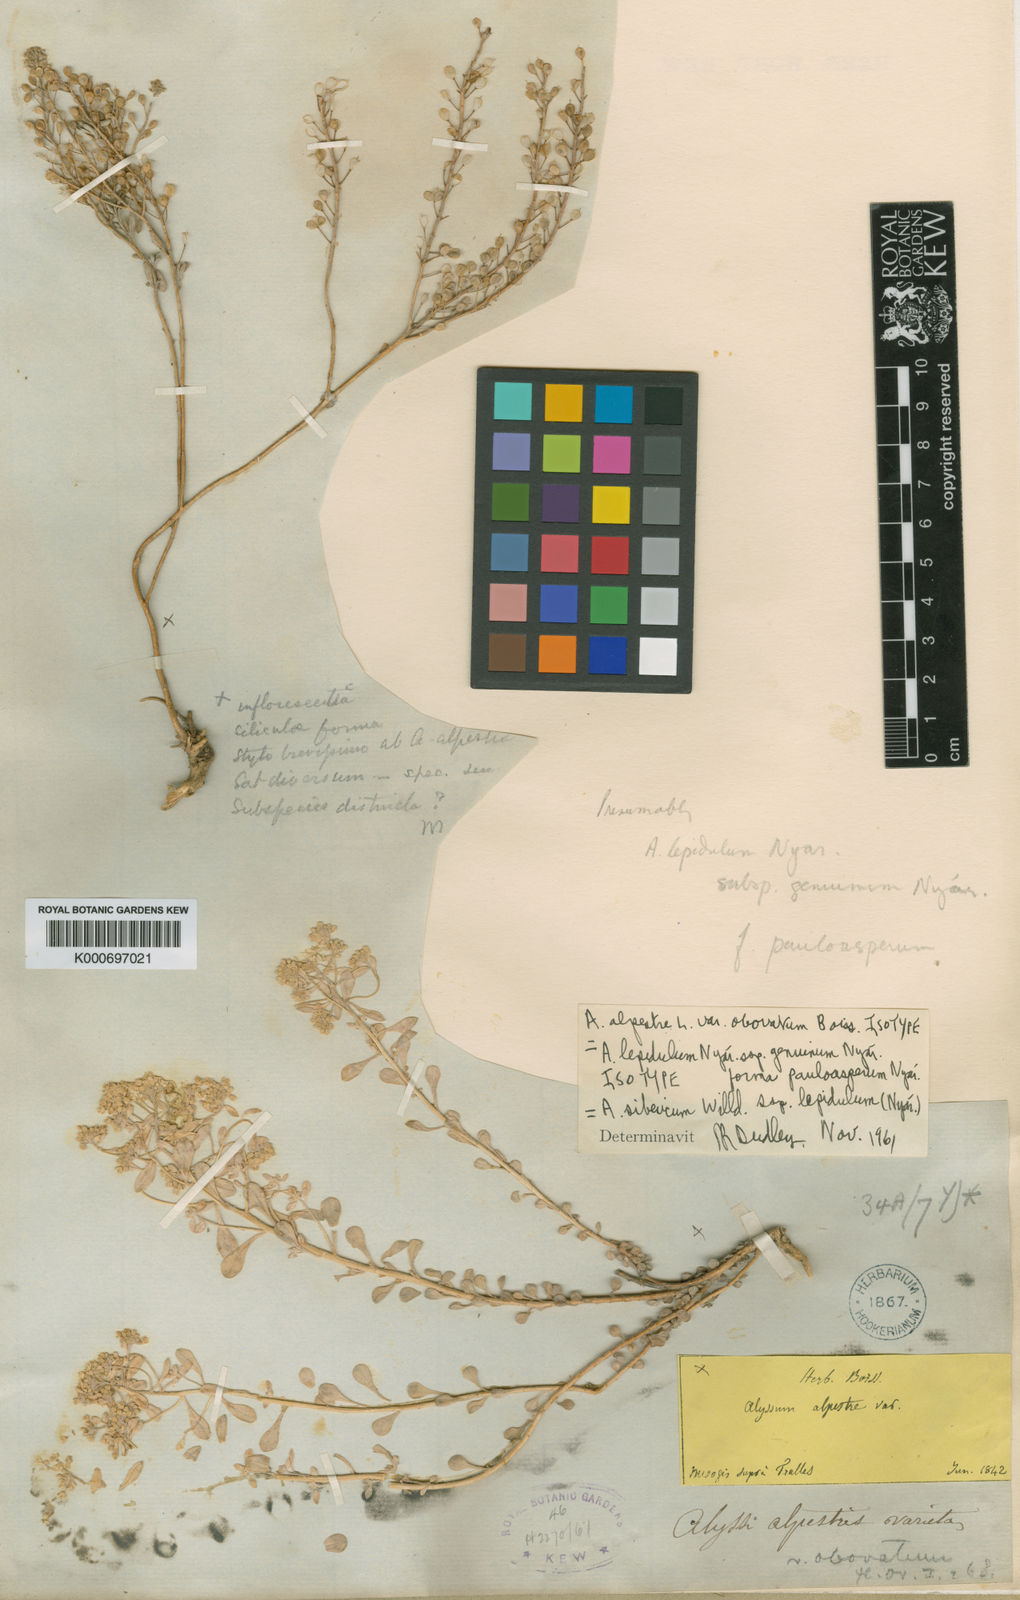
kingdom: Plantae
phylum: Tracheophyta
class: Magnoliopsida
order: Brassicales
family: Brassicaceae
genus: Odontarrhena
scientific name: Odontarrhena sibirica
